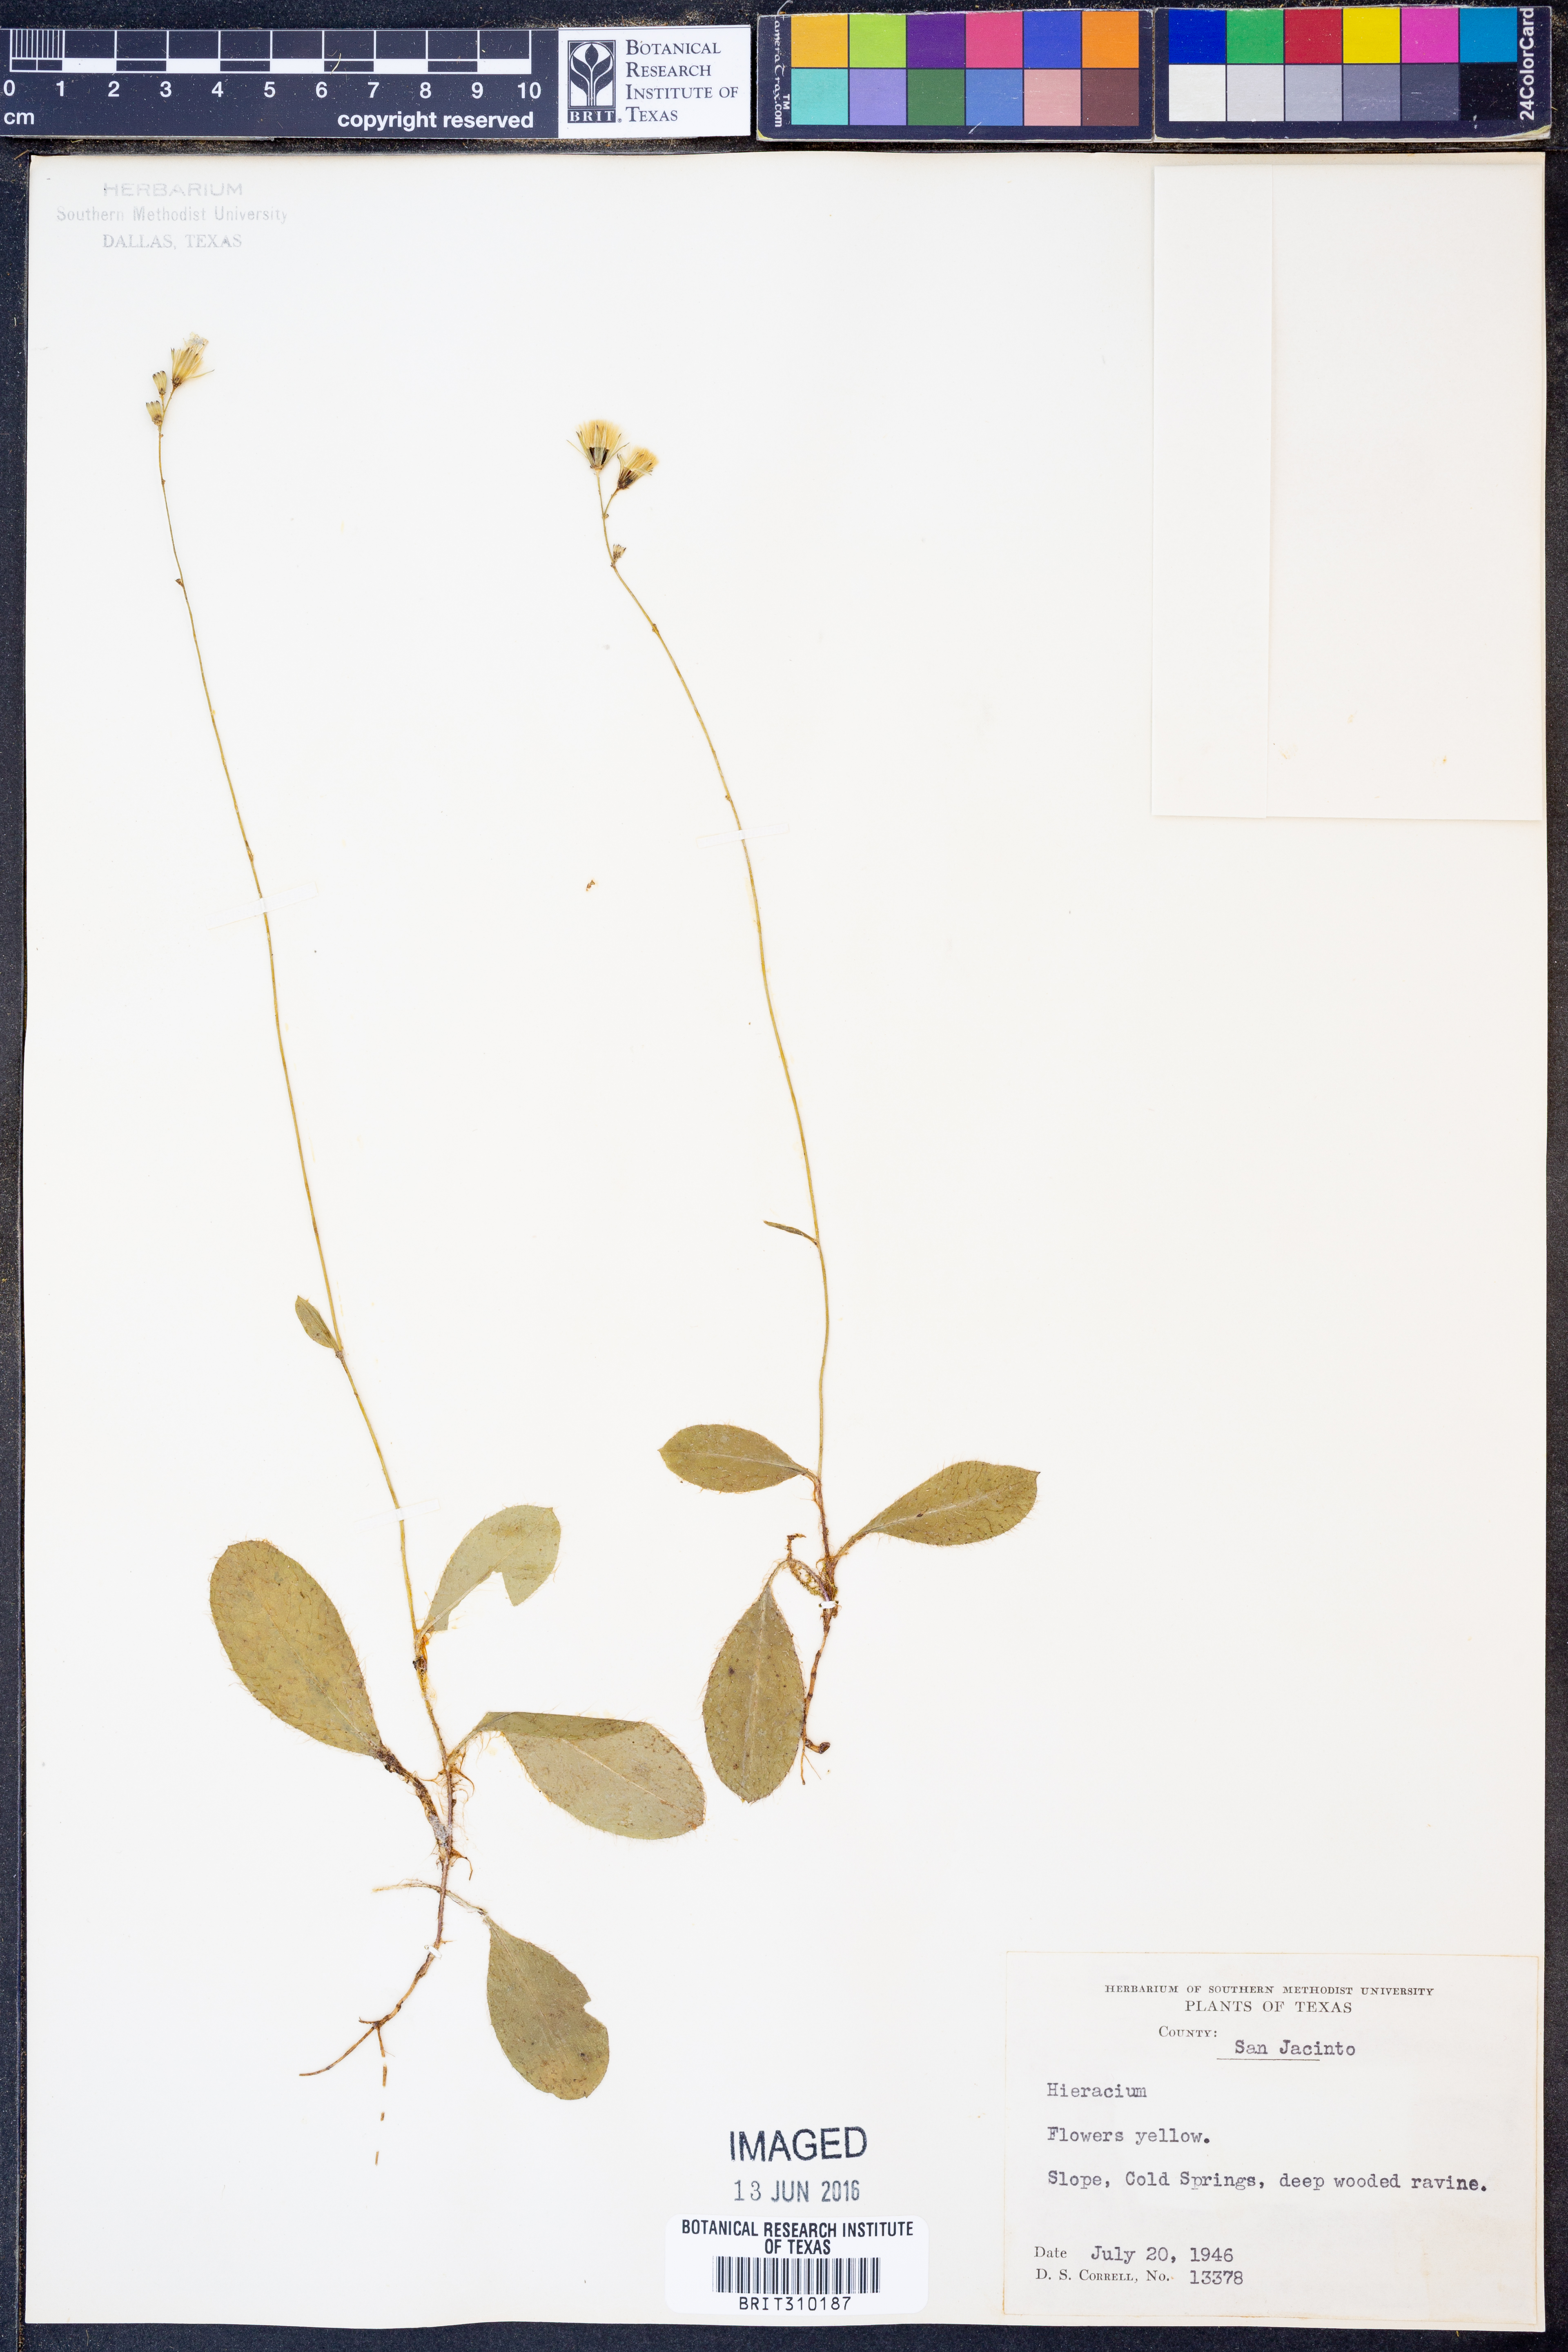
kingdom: Plantae
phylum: Tracheophyta
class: Magnoliopsida
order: Asterales
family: Asteraceae
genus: Hieracium
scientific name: Hieracium gronovii
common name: Beaked hawkweed
